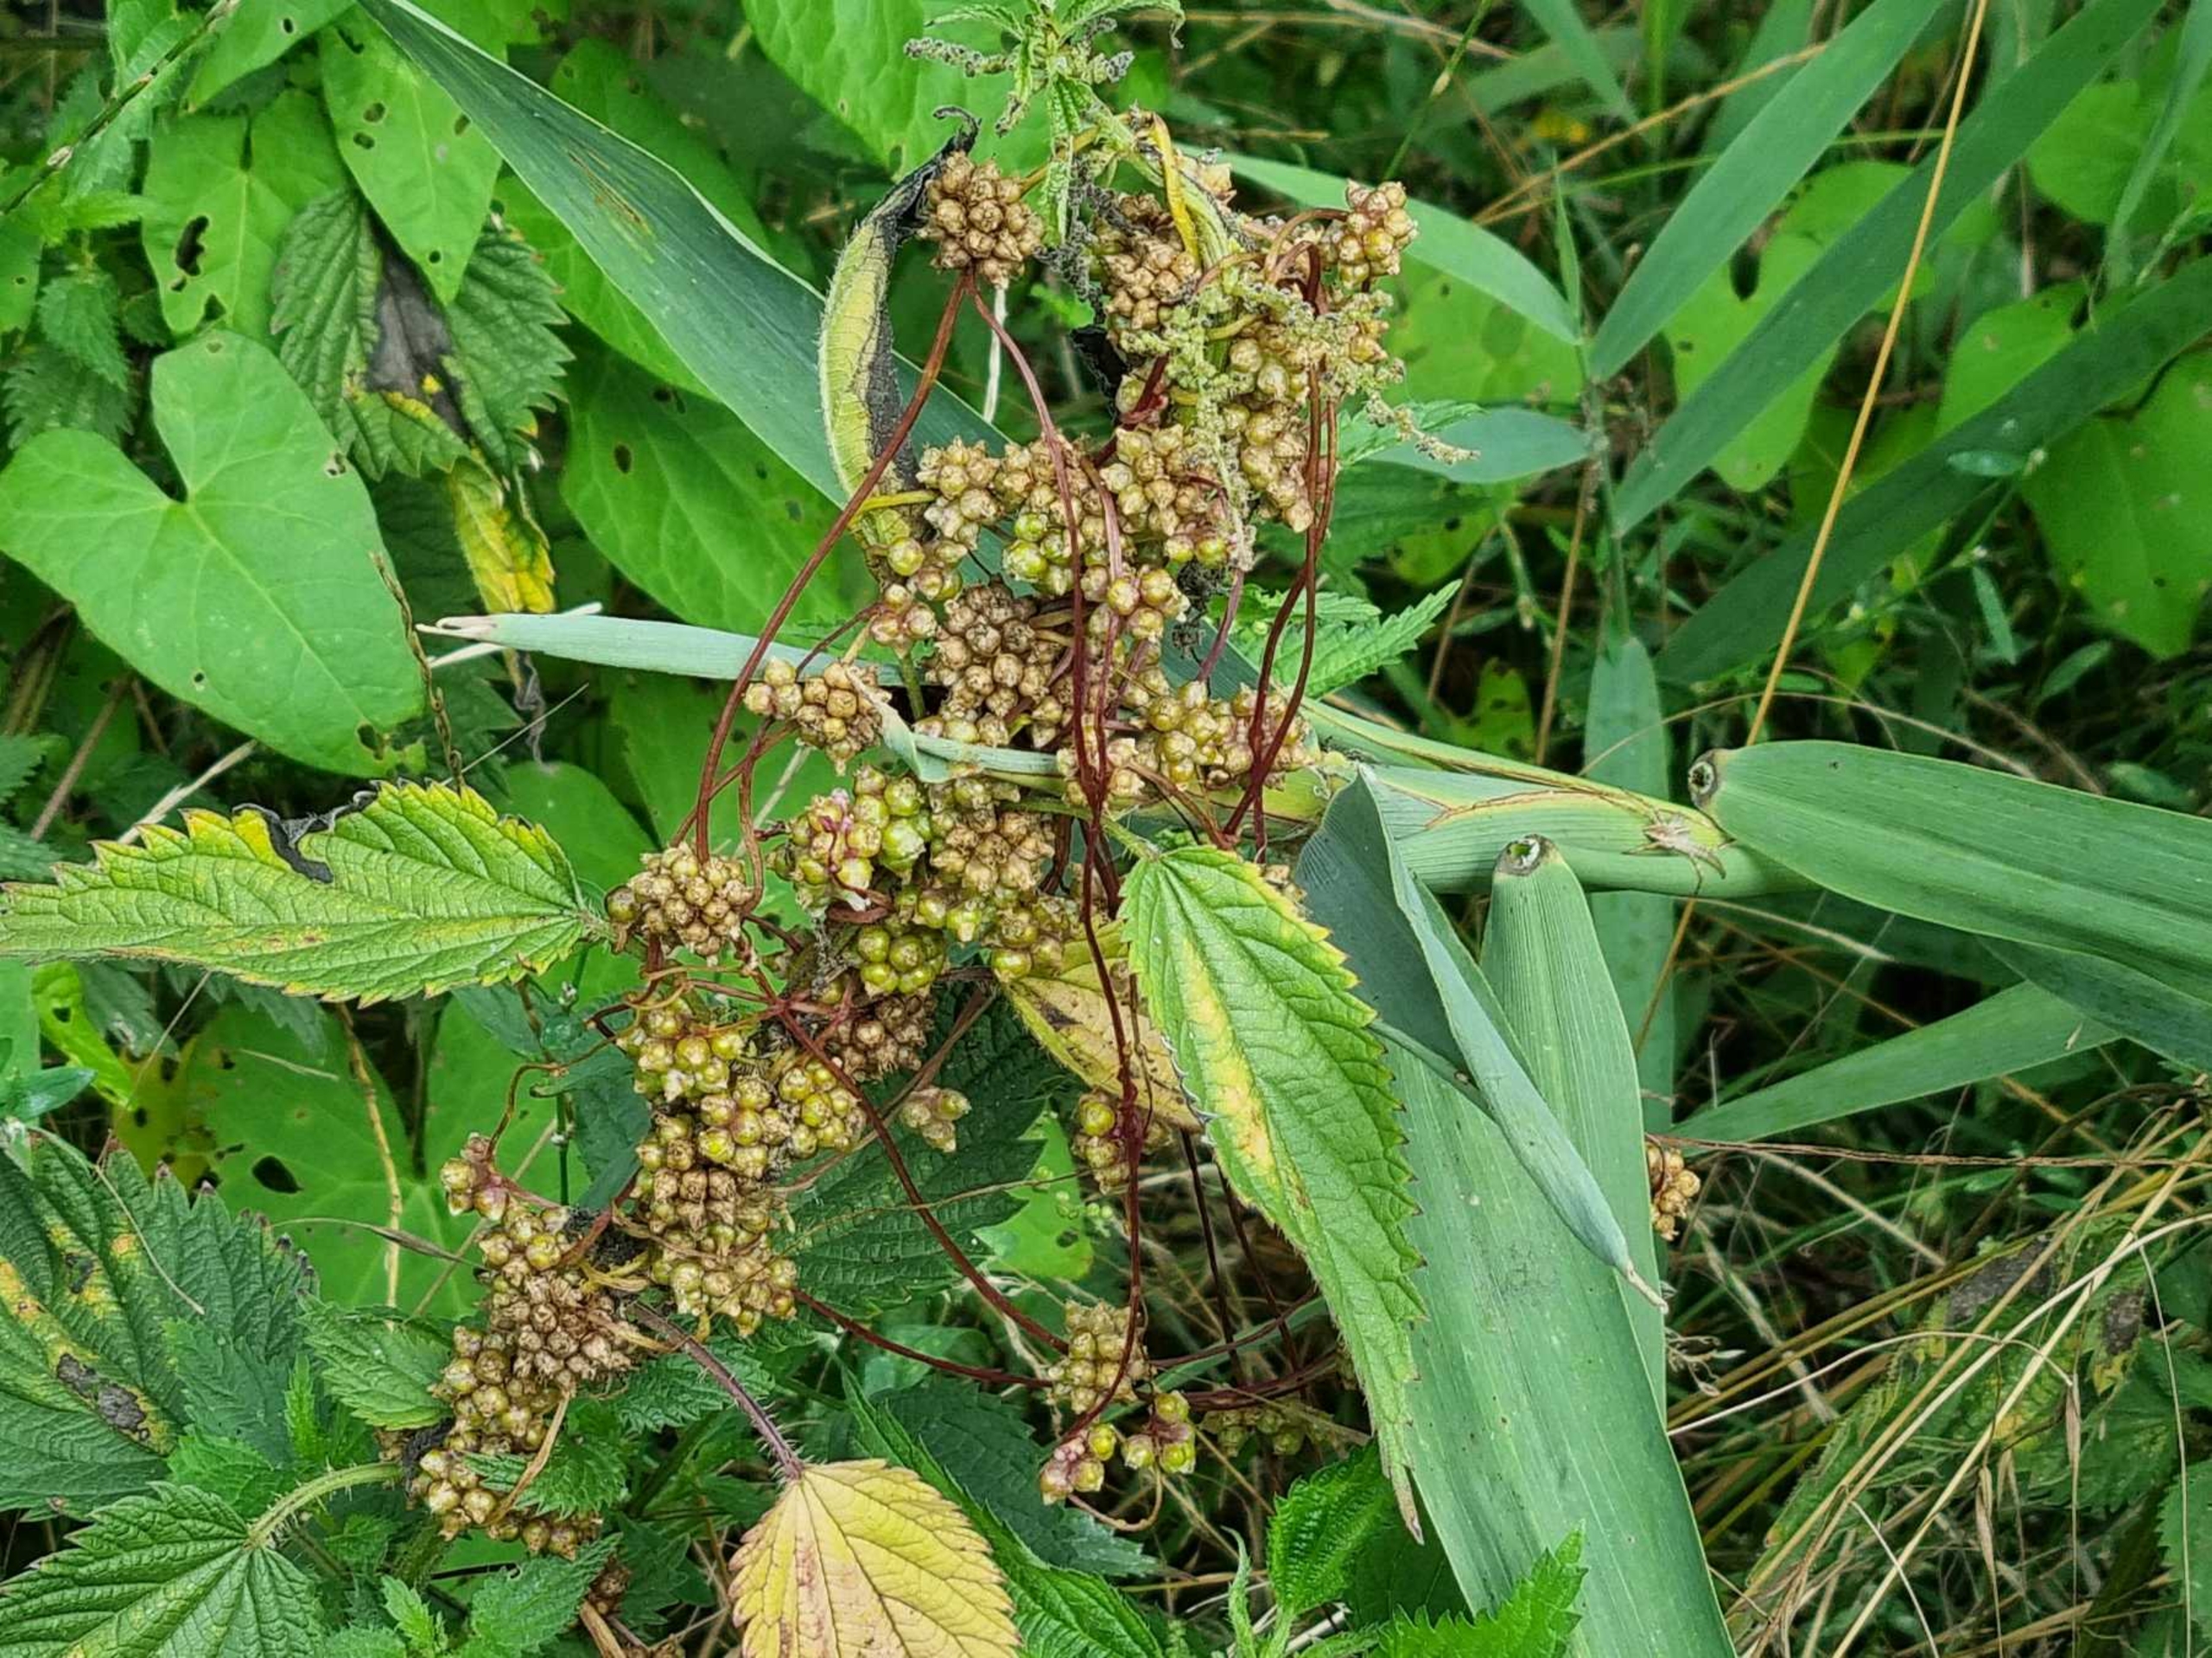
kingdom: Plantae
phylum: Tracheophyta
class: Magnoliopsida
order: Solanales
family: Convolvulaceae
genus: Cuscuta
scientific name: Cuscuta europaea
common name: Nælde-silke
